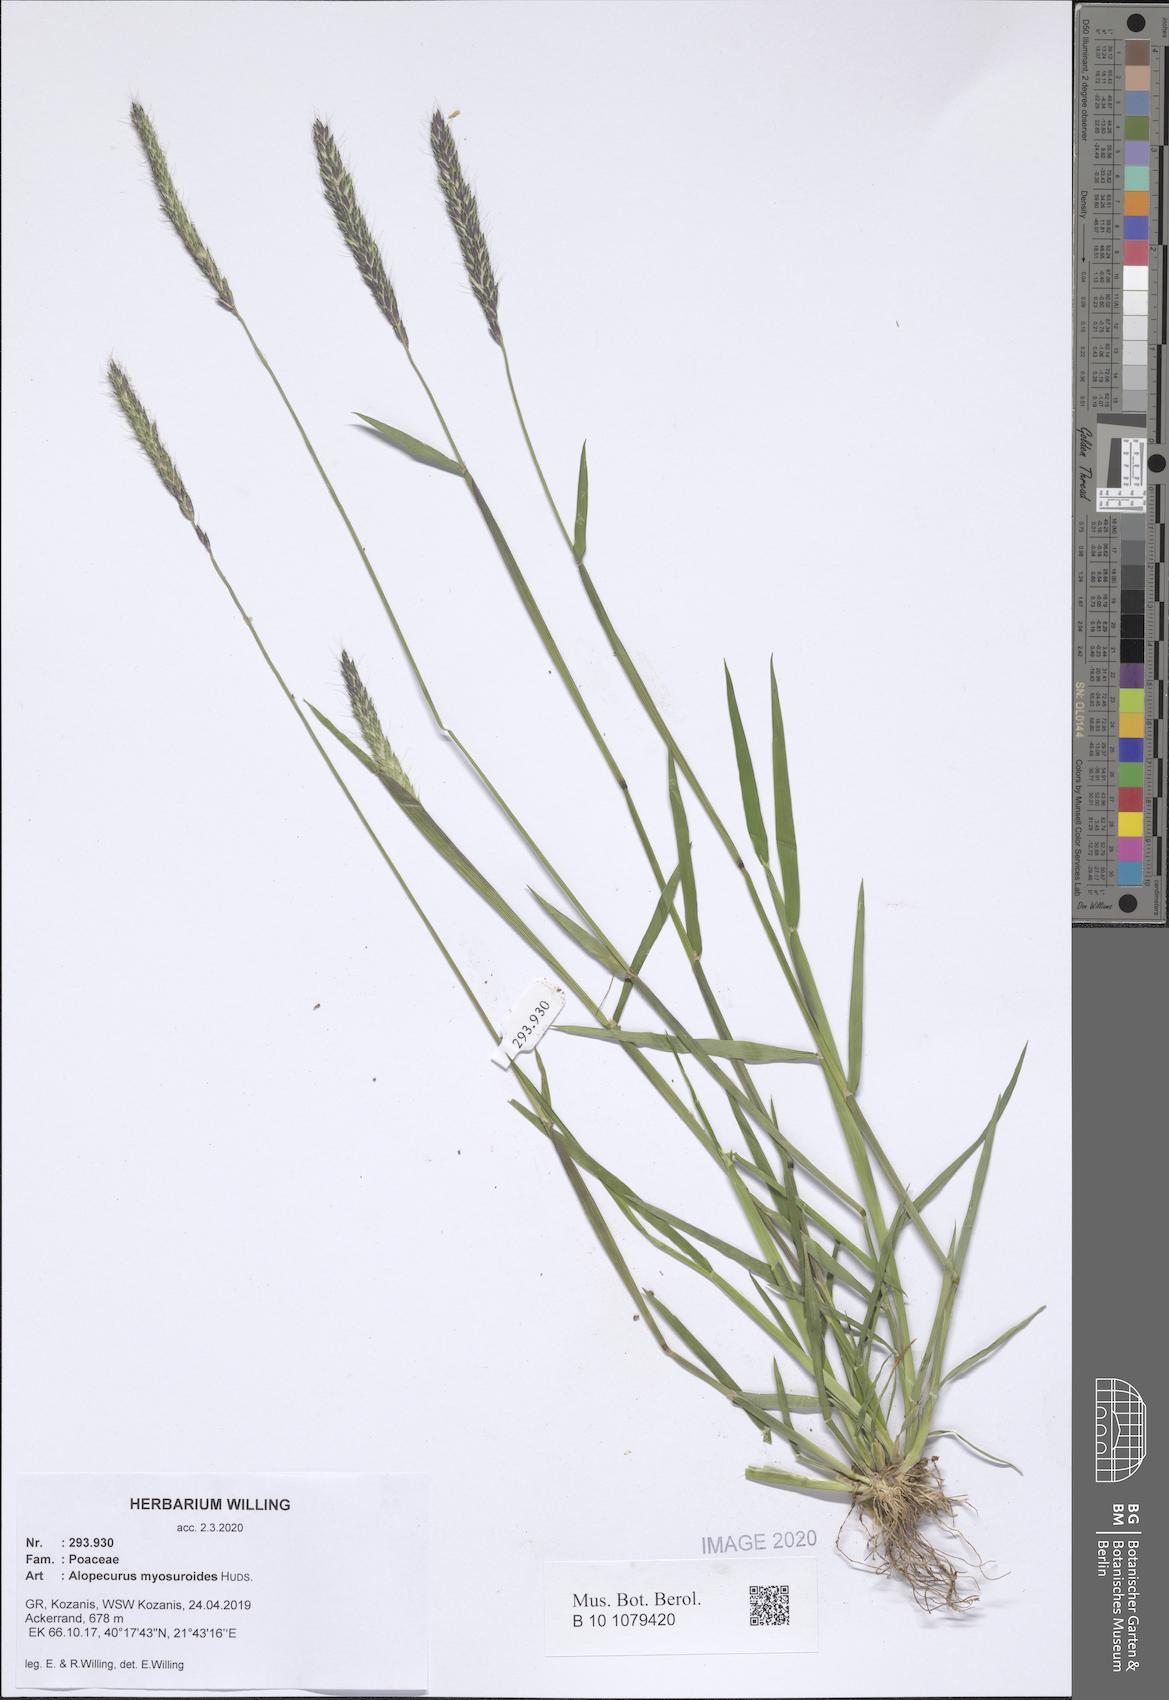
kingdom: Plantae
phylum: Tracheophyta
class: Liliopsida
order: Poales
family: Poaceae
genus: Alopecurus
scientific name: Alopecurus myosuroides
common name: Black-grass
